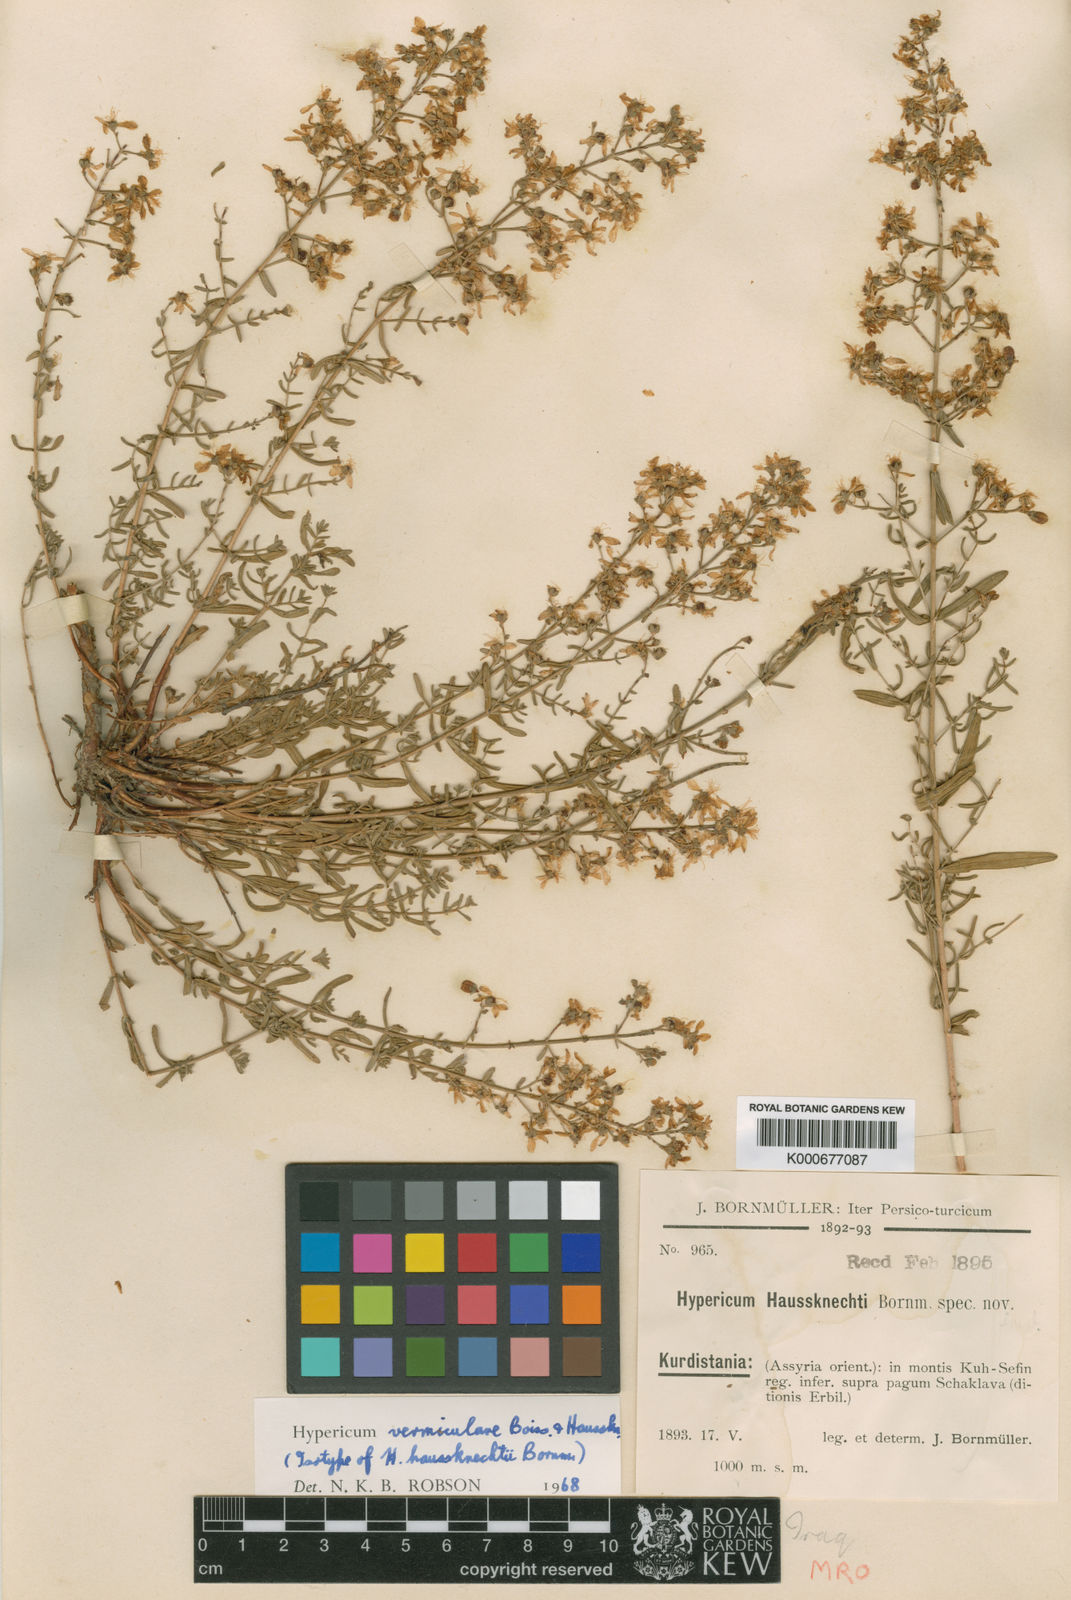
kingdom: Plantae
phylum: Tracheophyta
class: Magnoliopsida
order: Malpighiales
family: Hypericaceae
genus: Hypericum
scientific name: Hypericum vermiculare
